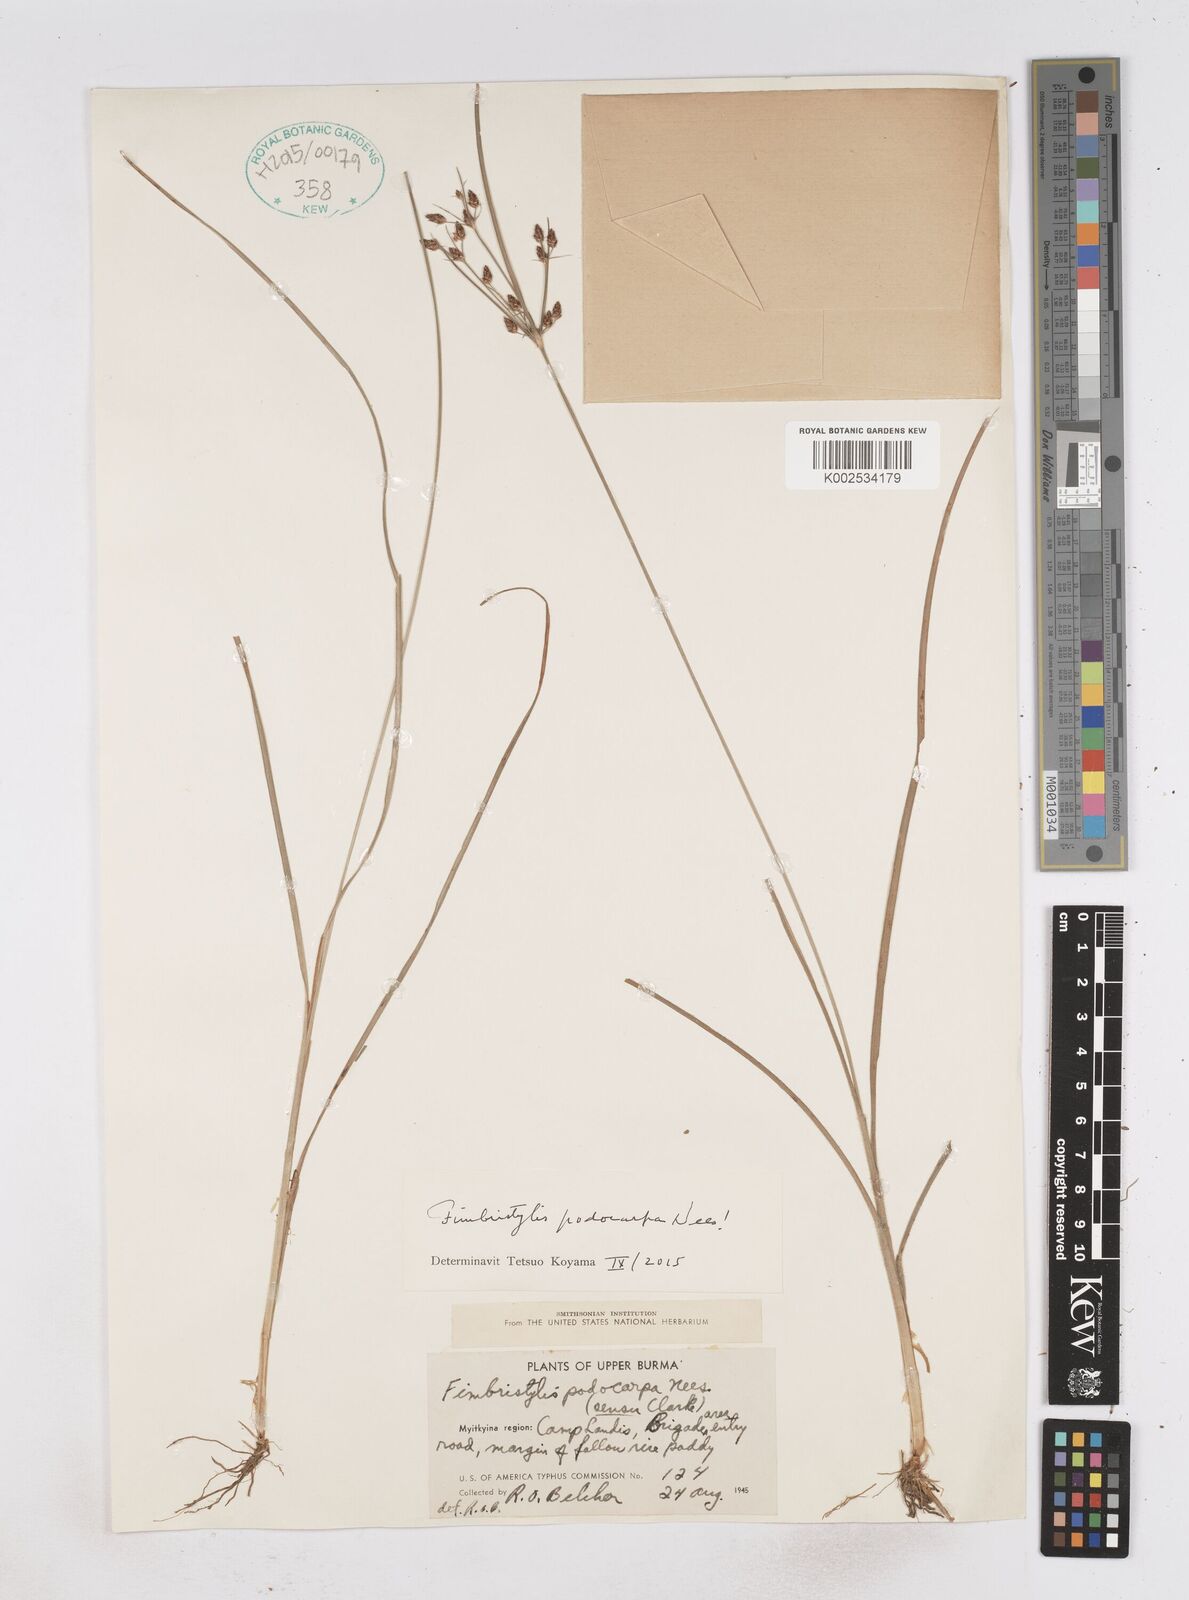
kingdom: Plantae
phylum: Tracheophyta
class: Liliopsida
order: Poales
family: Cyperaceae
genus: Fimbristylis
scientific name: Fimbristylis dichotoma
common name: Forked fimbry
